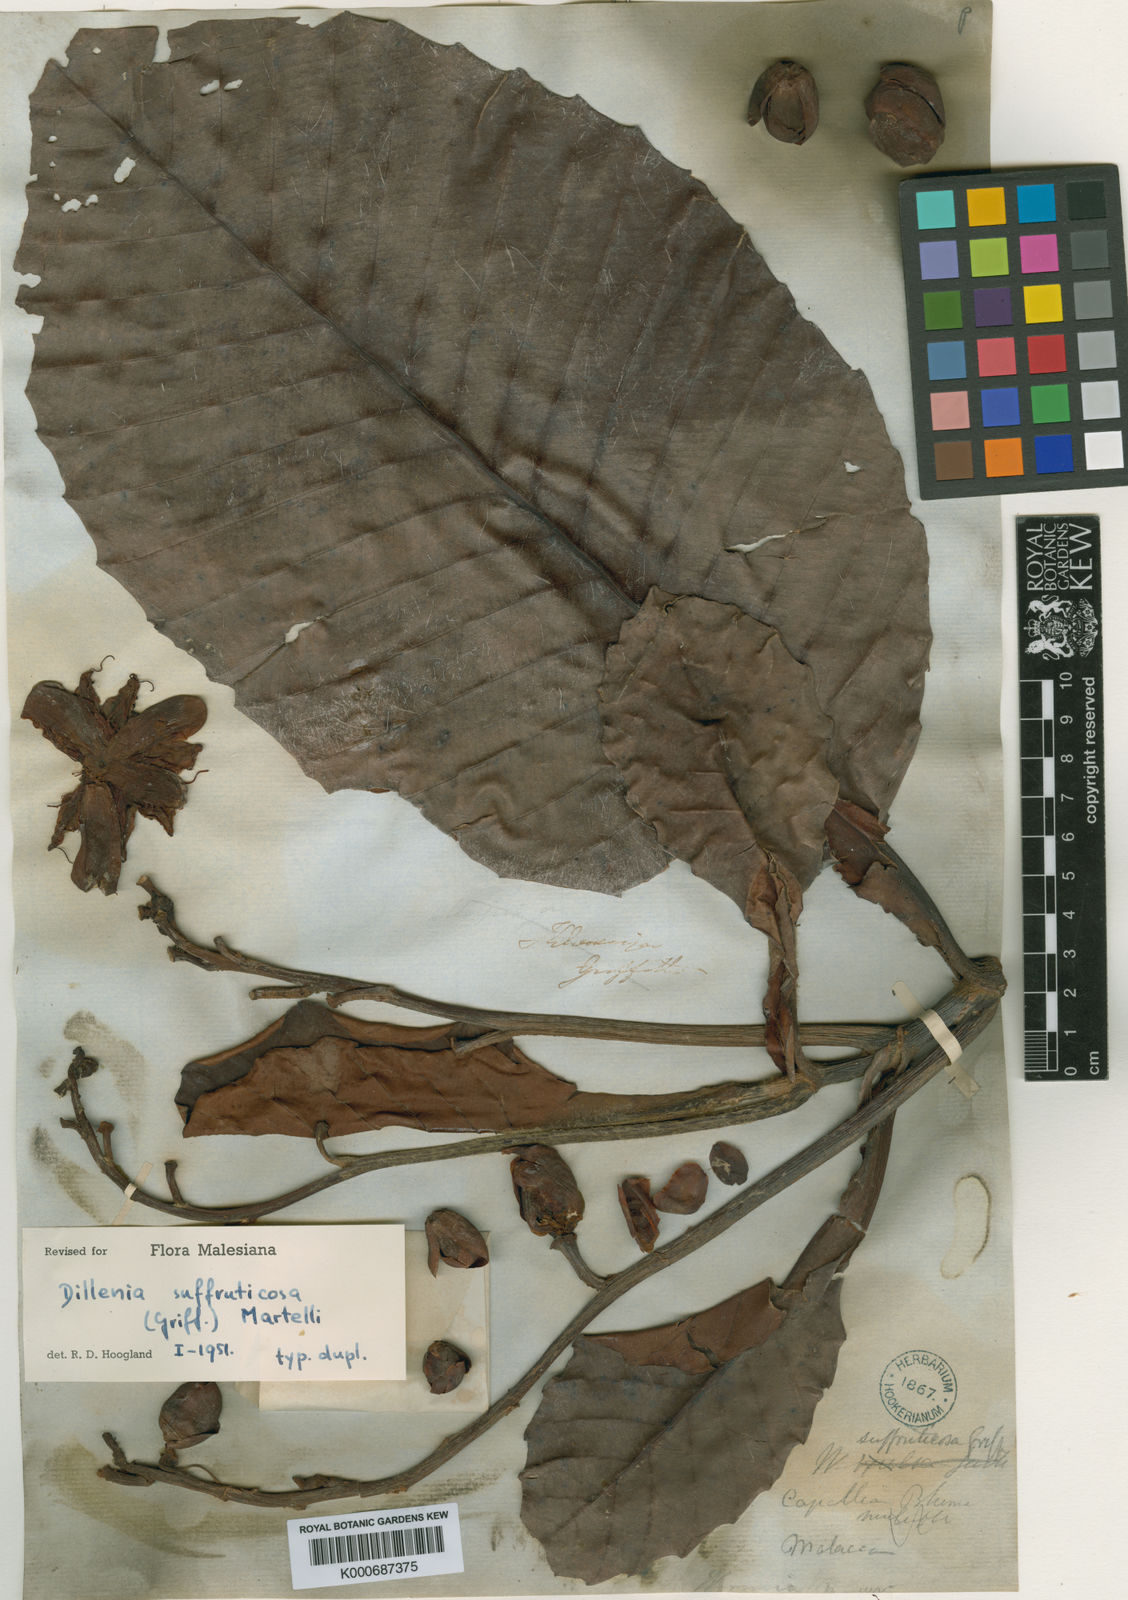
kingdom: Plantae
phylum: Tracheophyta
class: Magnoliopsida
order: Dilleniales
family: Dilleniaceae
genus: Dillenia
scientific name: Dillenia suffruticosa
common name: Shrubby dillenia
